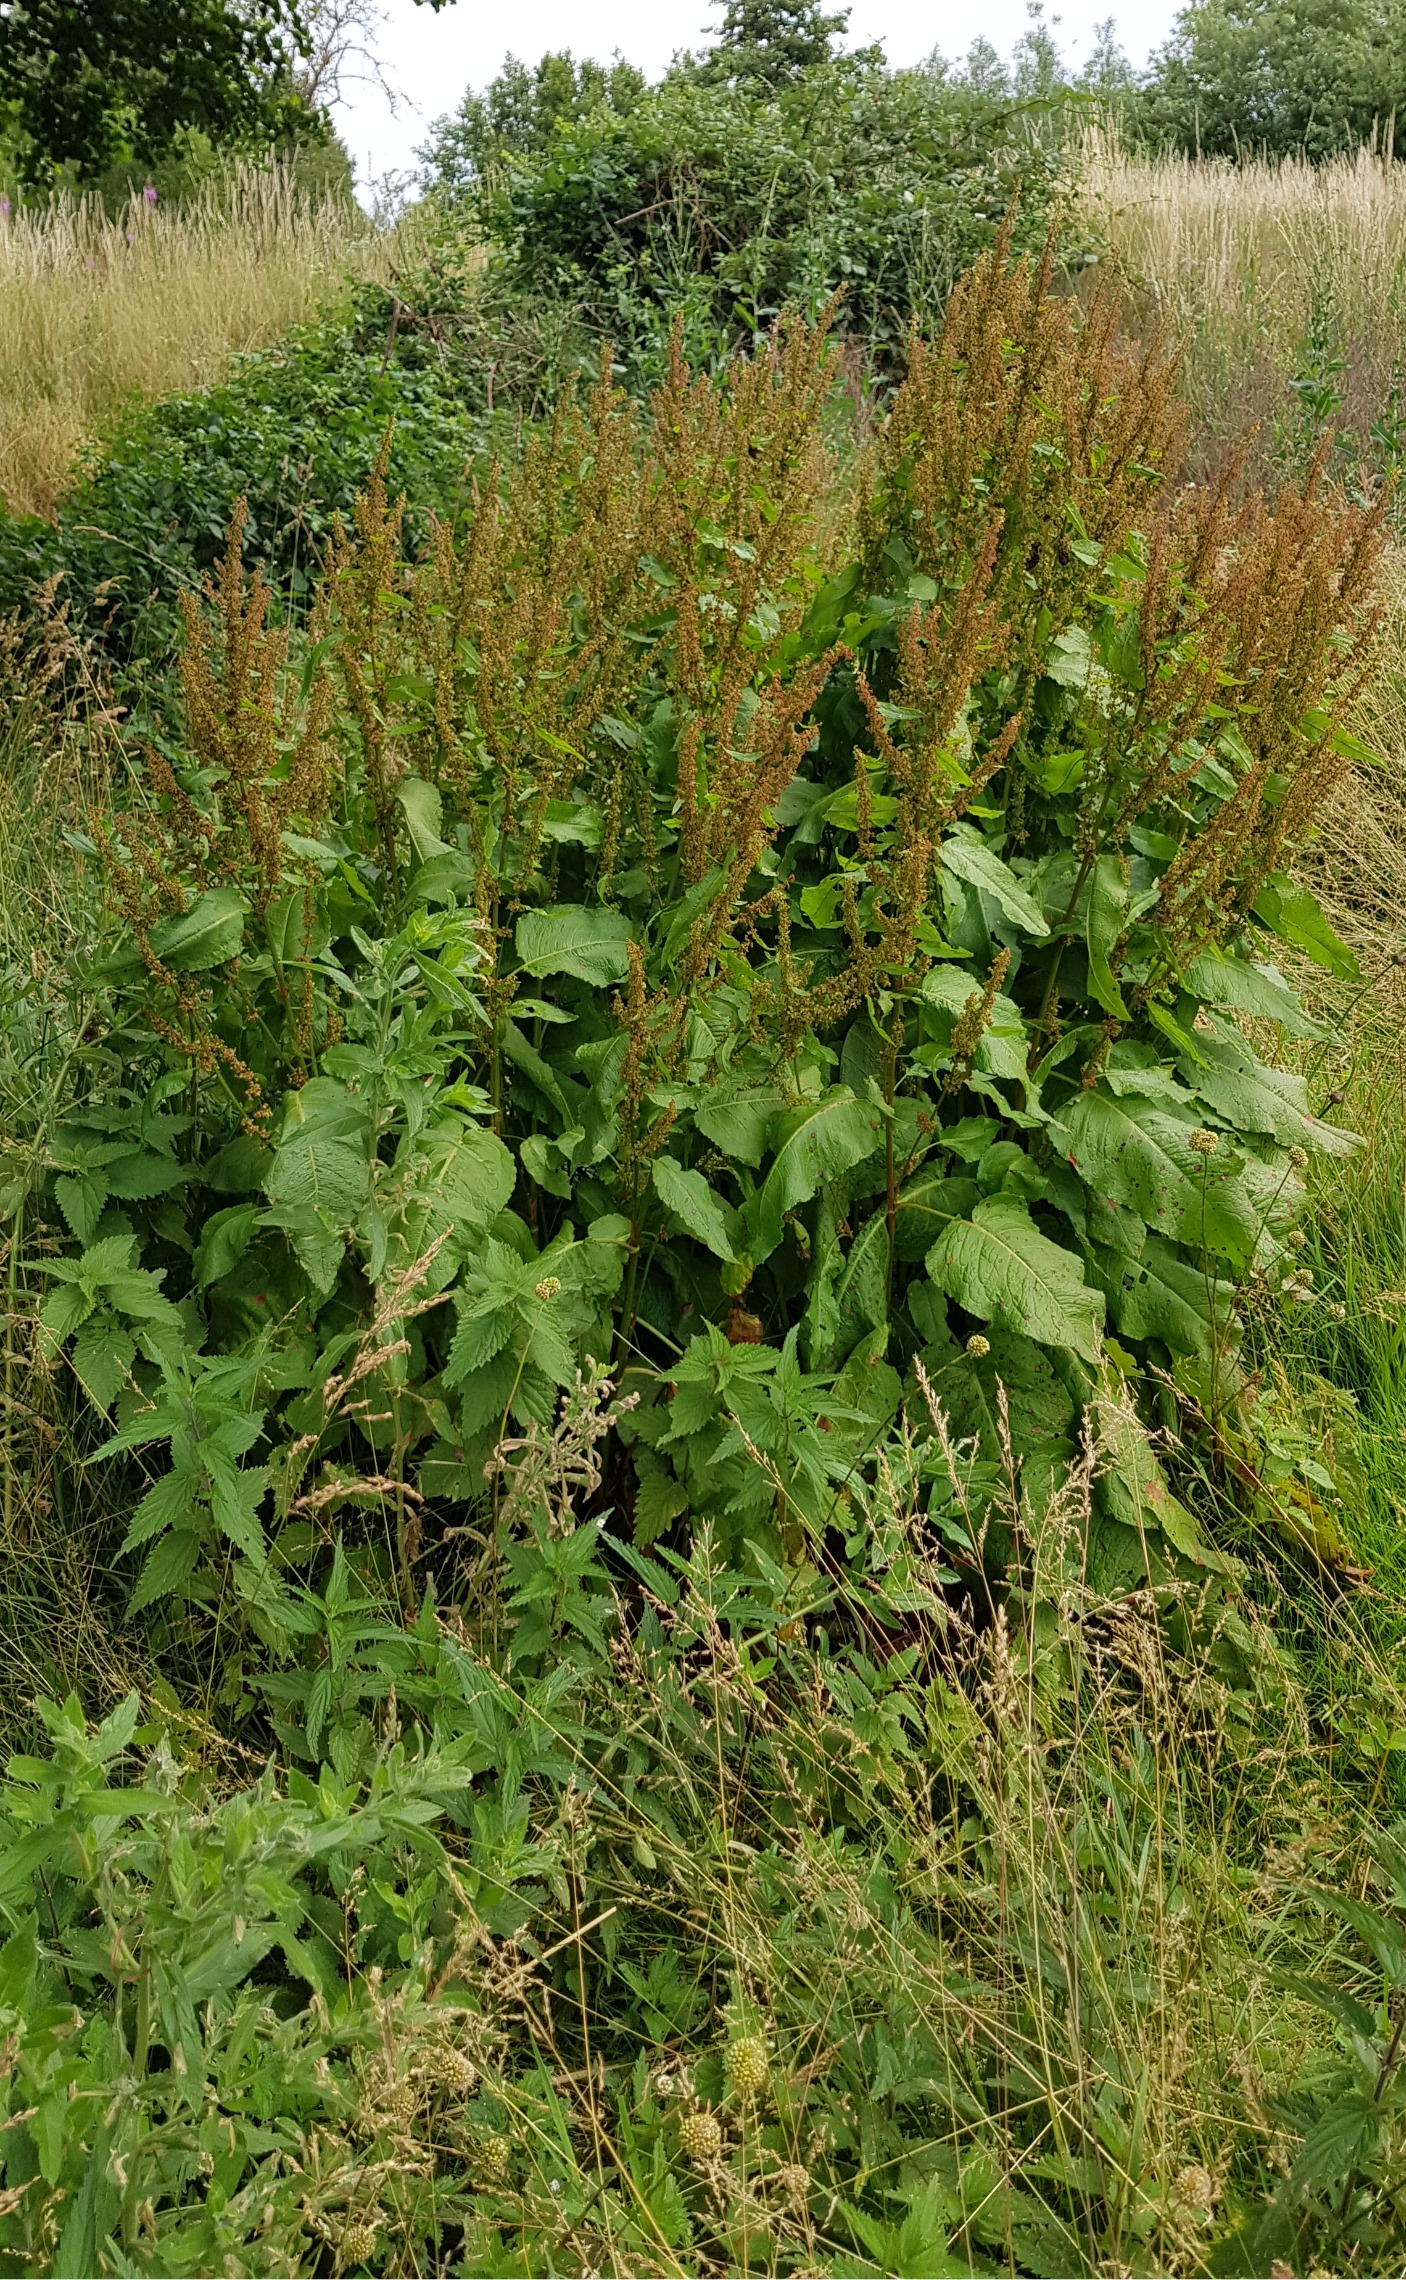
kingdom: Plantae
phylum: Tracheophyta
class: Magnoliopsida
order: Caryophyllales
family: Polygonaceae
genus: Rumex
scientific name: Rumex obtusifolius
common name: Butbladet skræppe
